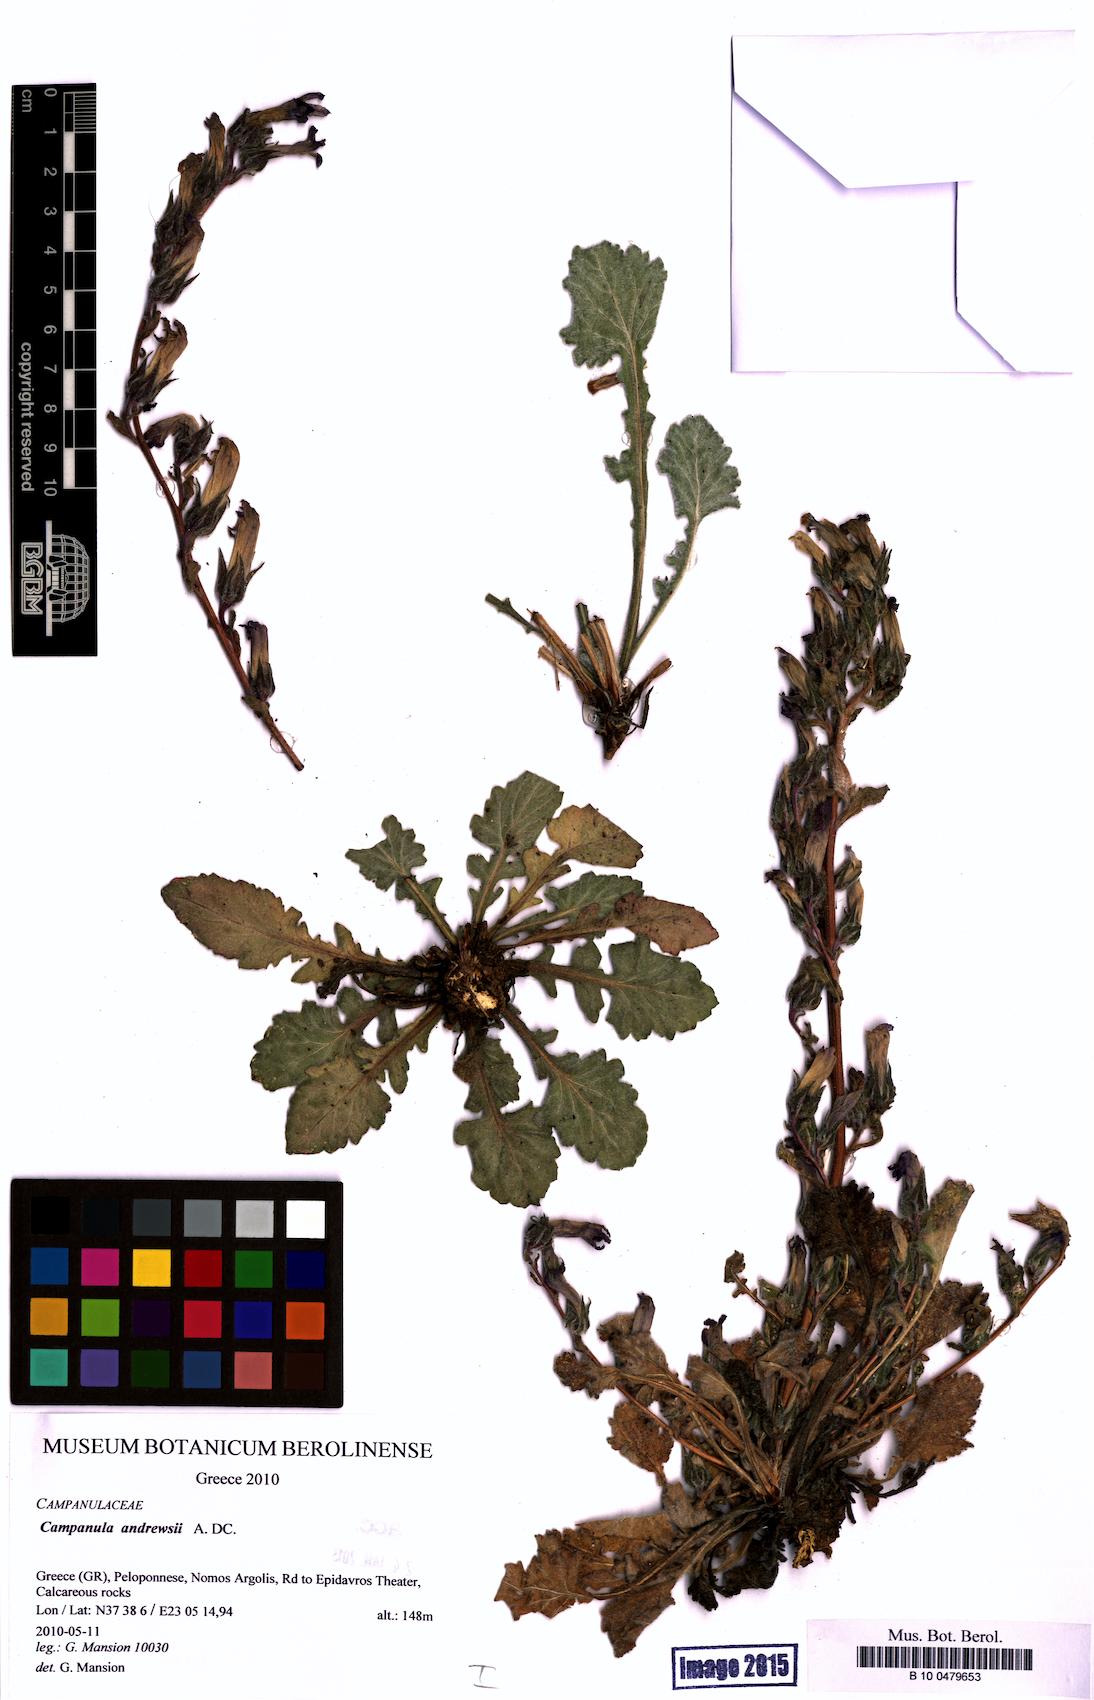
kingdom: Plantae
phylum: Tracheophyta
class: Magnoliopsida
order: Asterales
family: Campanulaceae
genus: Campanula
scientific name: Campanula andrewsii
